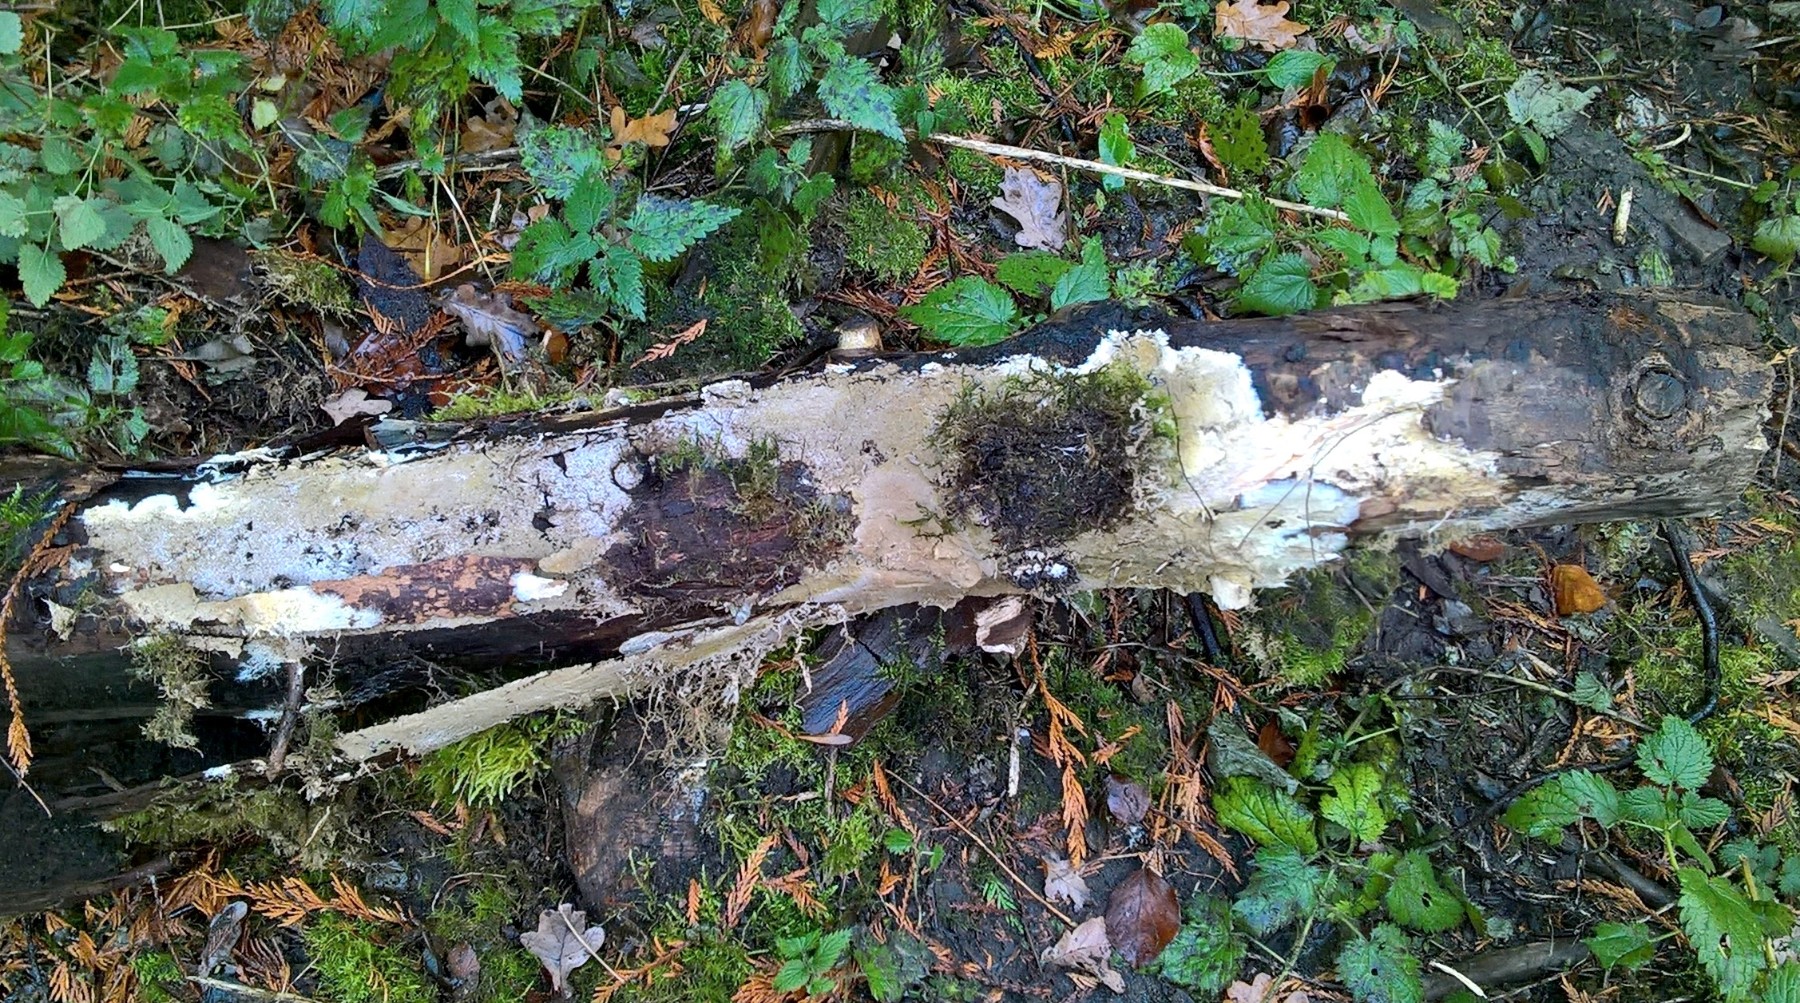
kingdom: Fungi
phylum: Basidiomycota
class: Agaricomycetes
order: Boletales
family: Coniophoraceae
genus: Coniophora
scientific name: Coniophora
